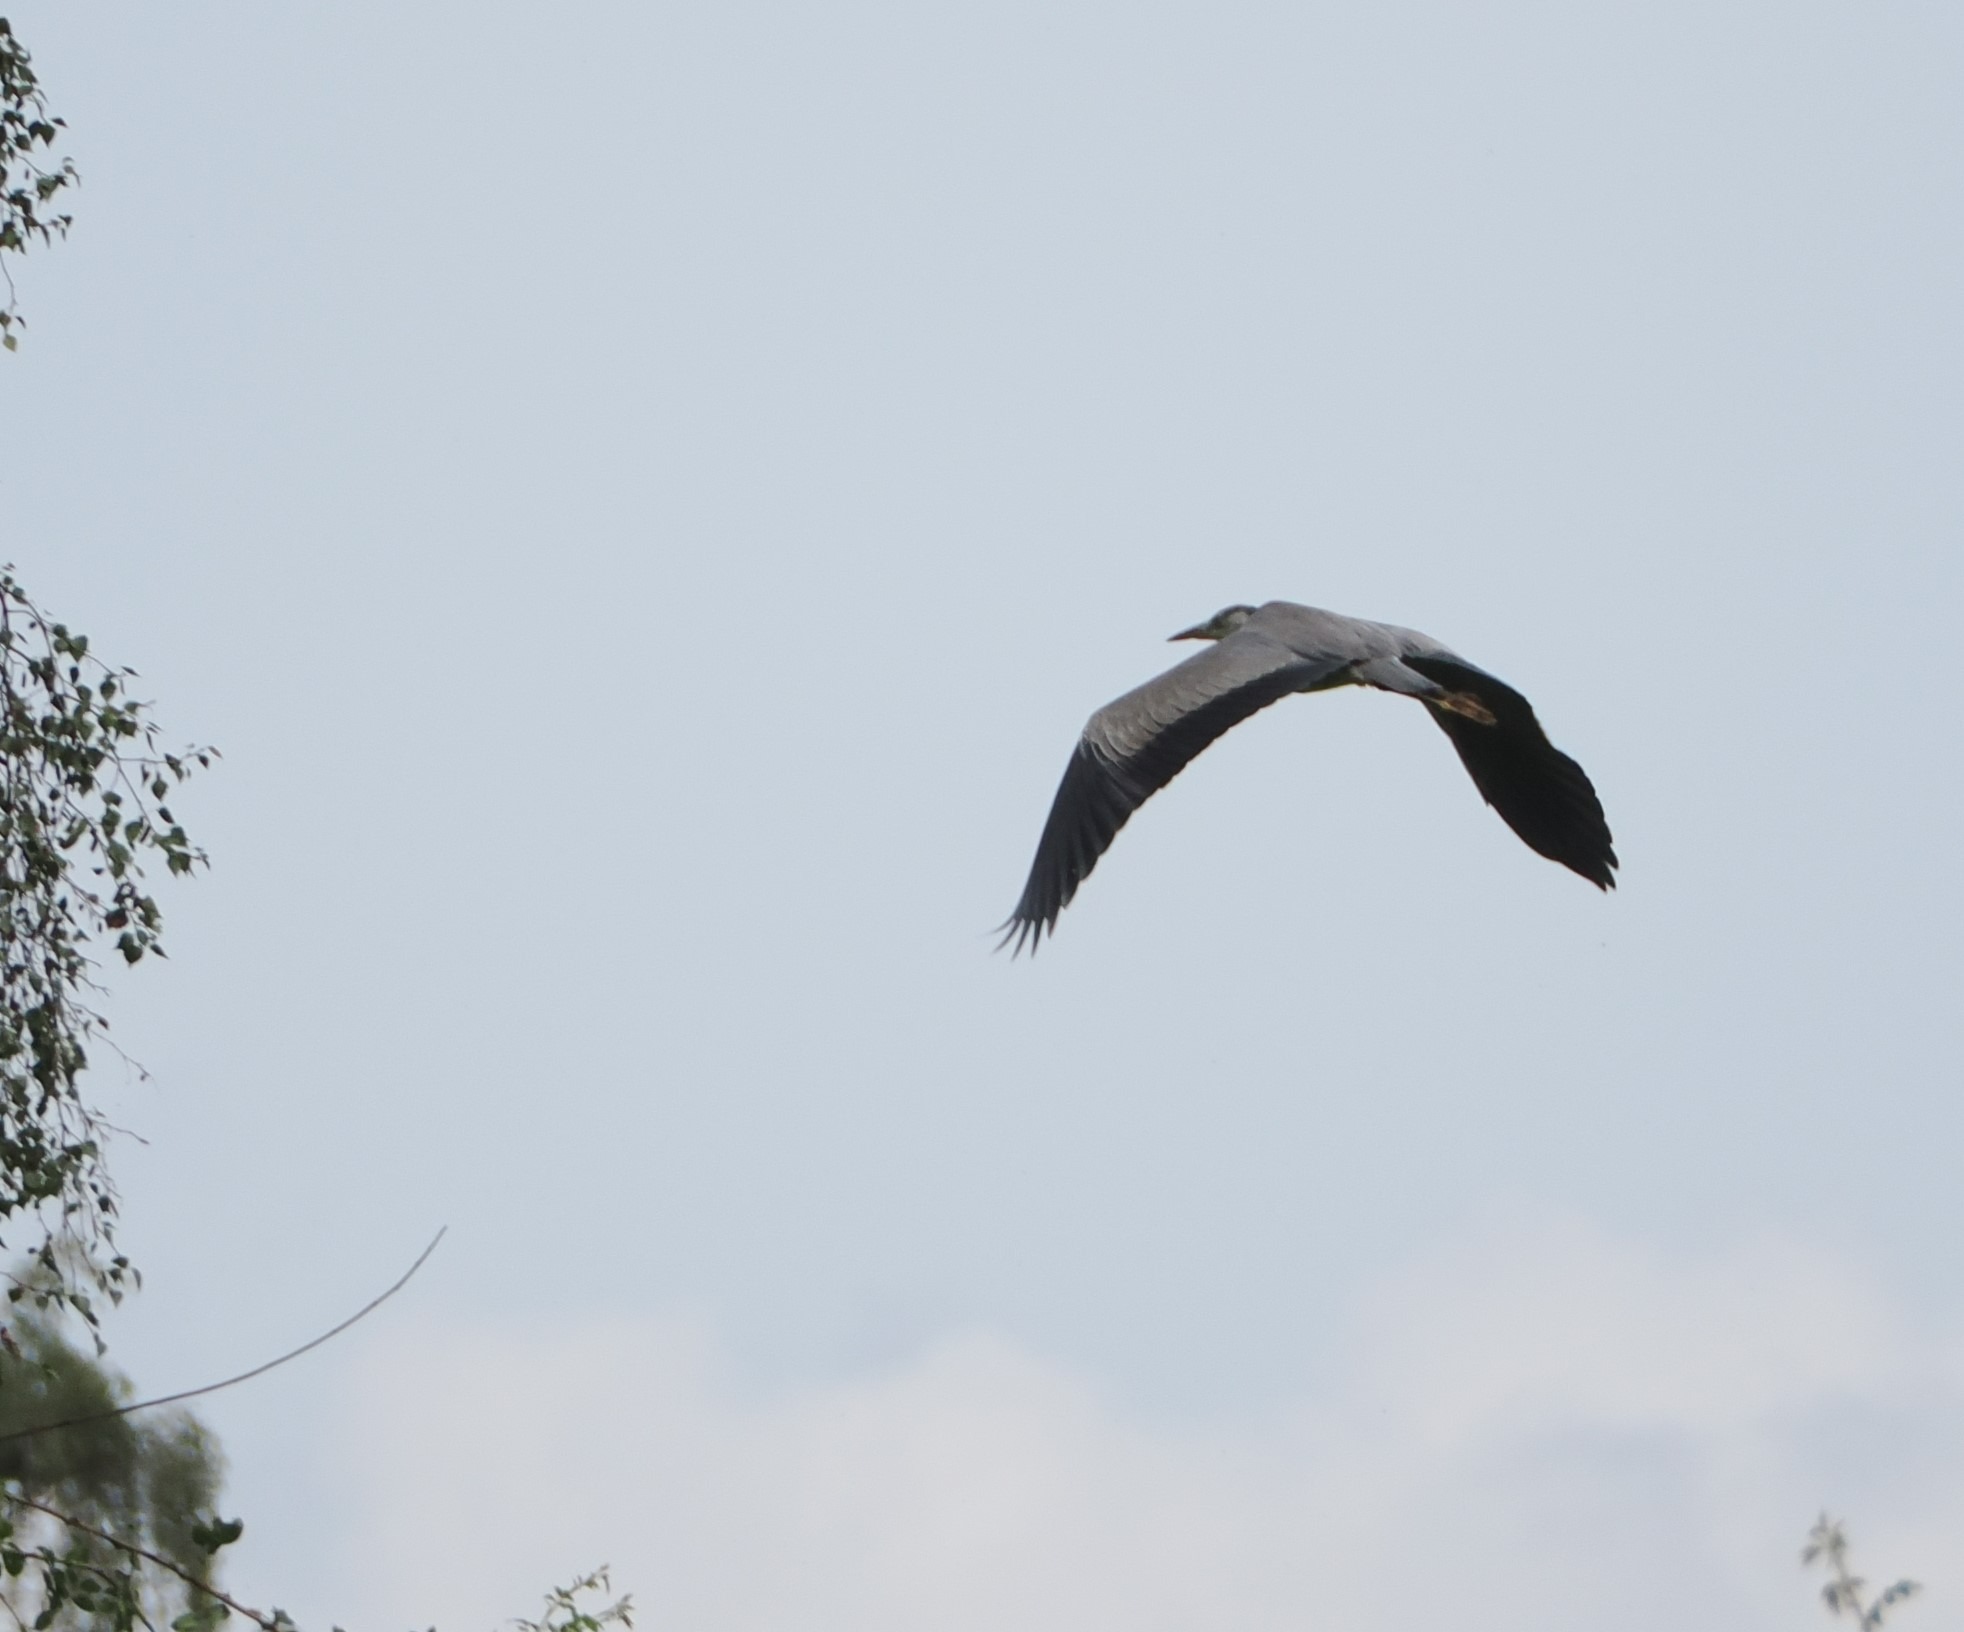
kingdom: Animalia
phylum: Chordata
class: Aves
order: Pelecaniformes
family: Ardeidae
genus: Ardea
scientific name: Ardea cinerea
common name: Fiskehejre
